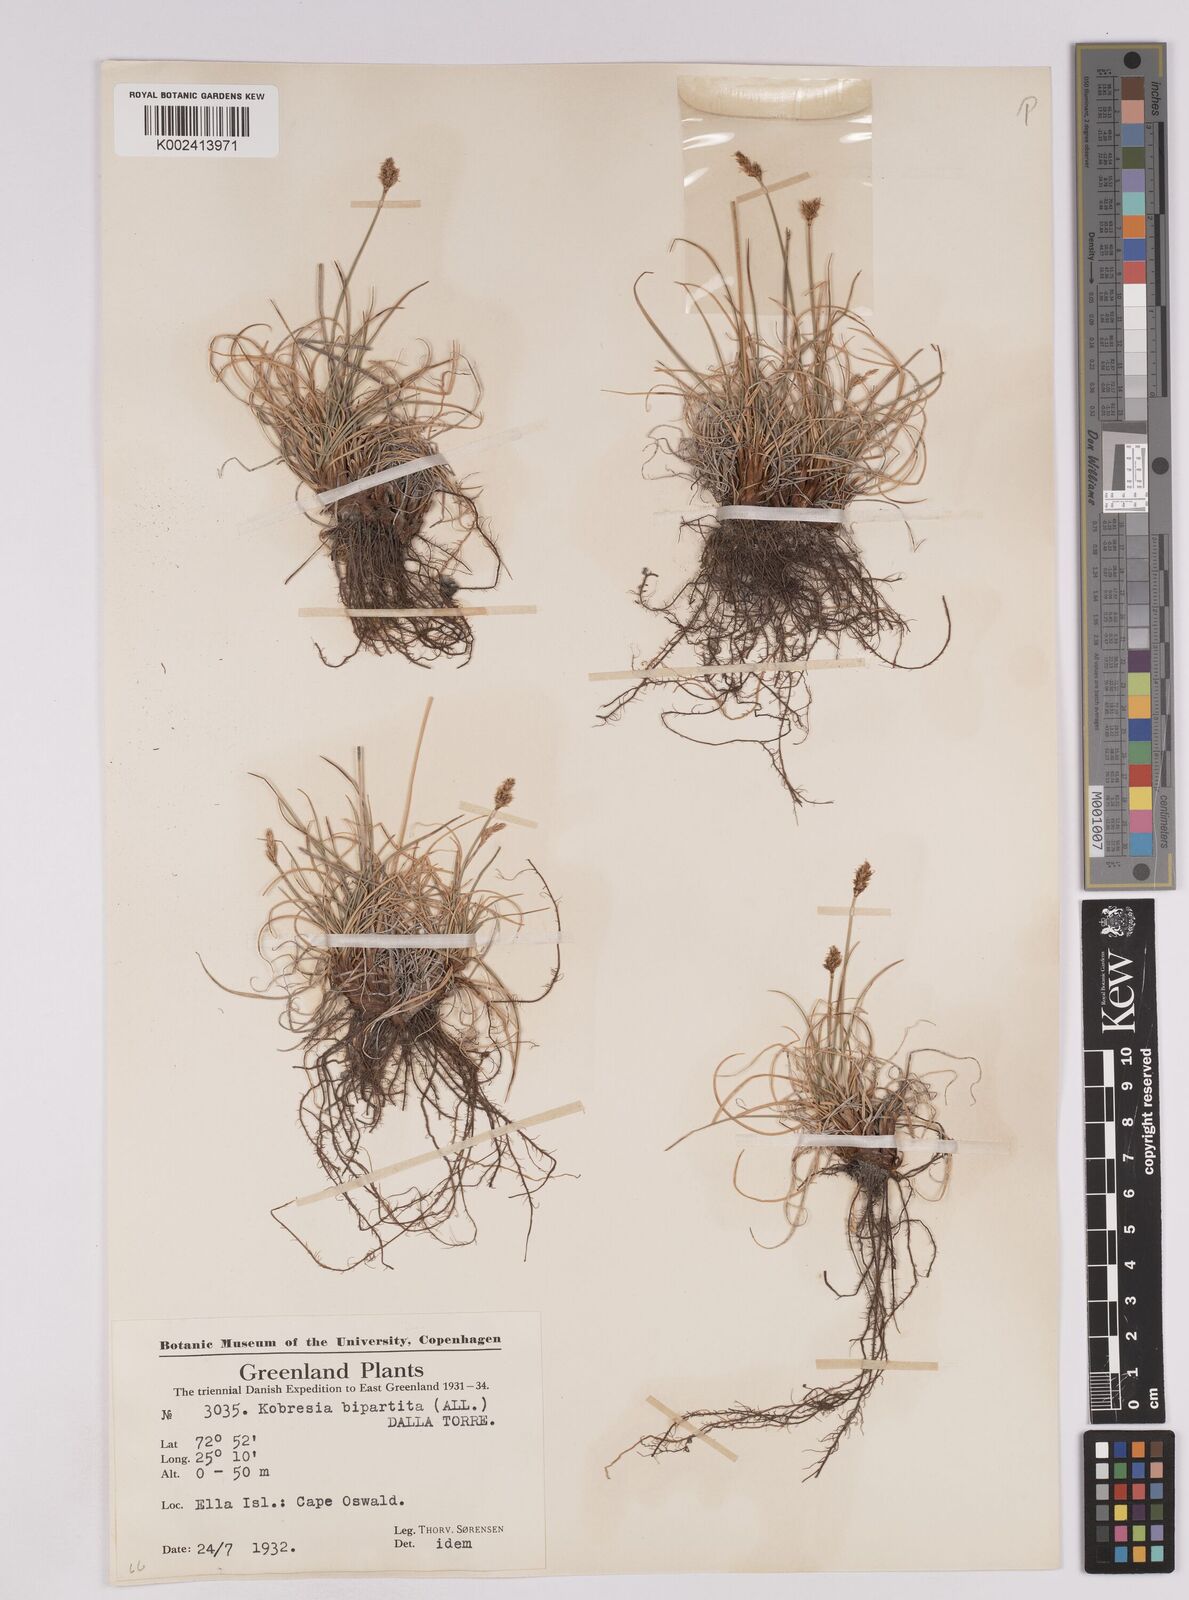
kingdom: Plantae
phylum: Tracheophyta
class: Liliopsida
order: Poales
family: Cyperaceae
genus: Carex
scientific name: Carex simpliciuscula
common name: Simple bog sedge
